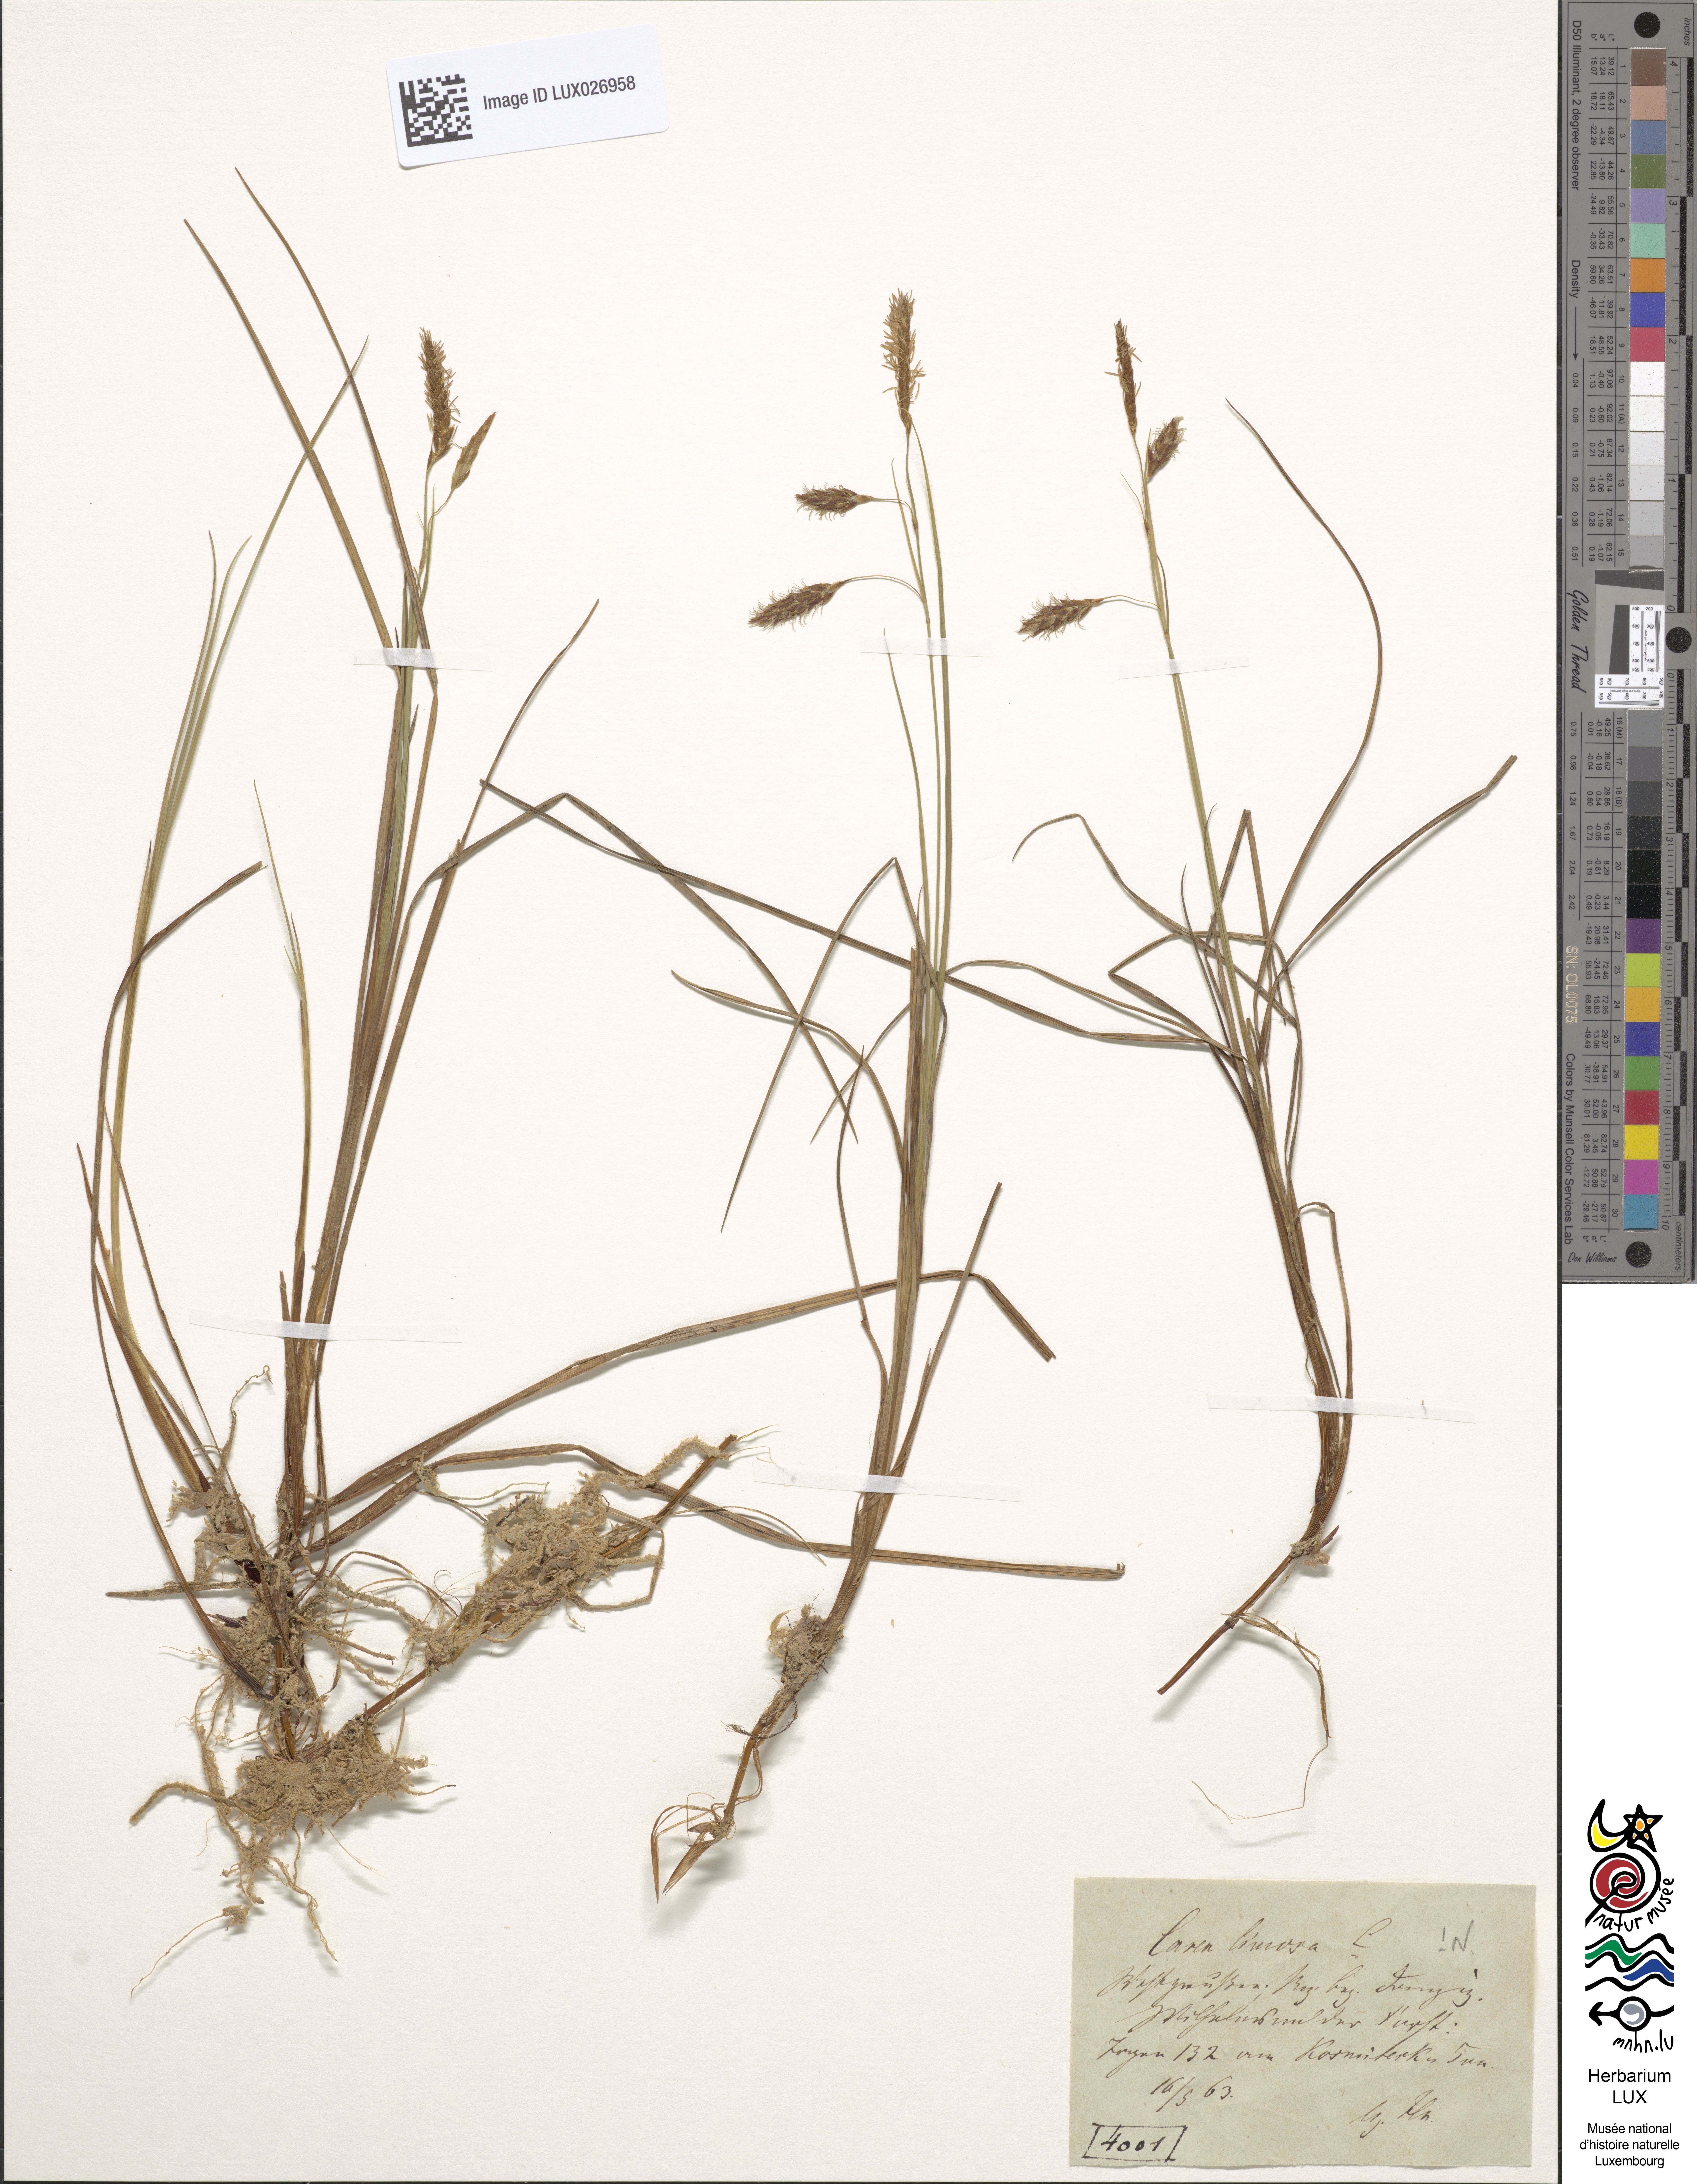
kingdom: Plantae
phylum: Tracheophyta
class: Liliopsida
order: Poales
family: Cyperaceae
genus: Carex
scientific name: Carex limosa
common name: Bog sedge
